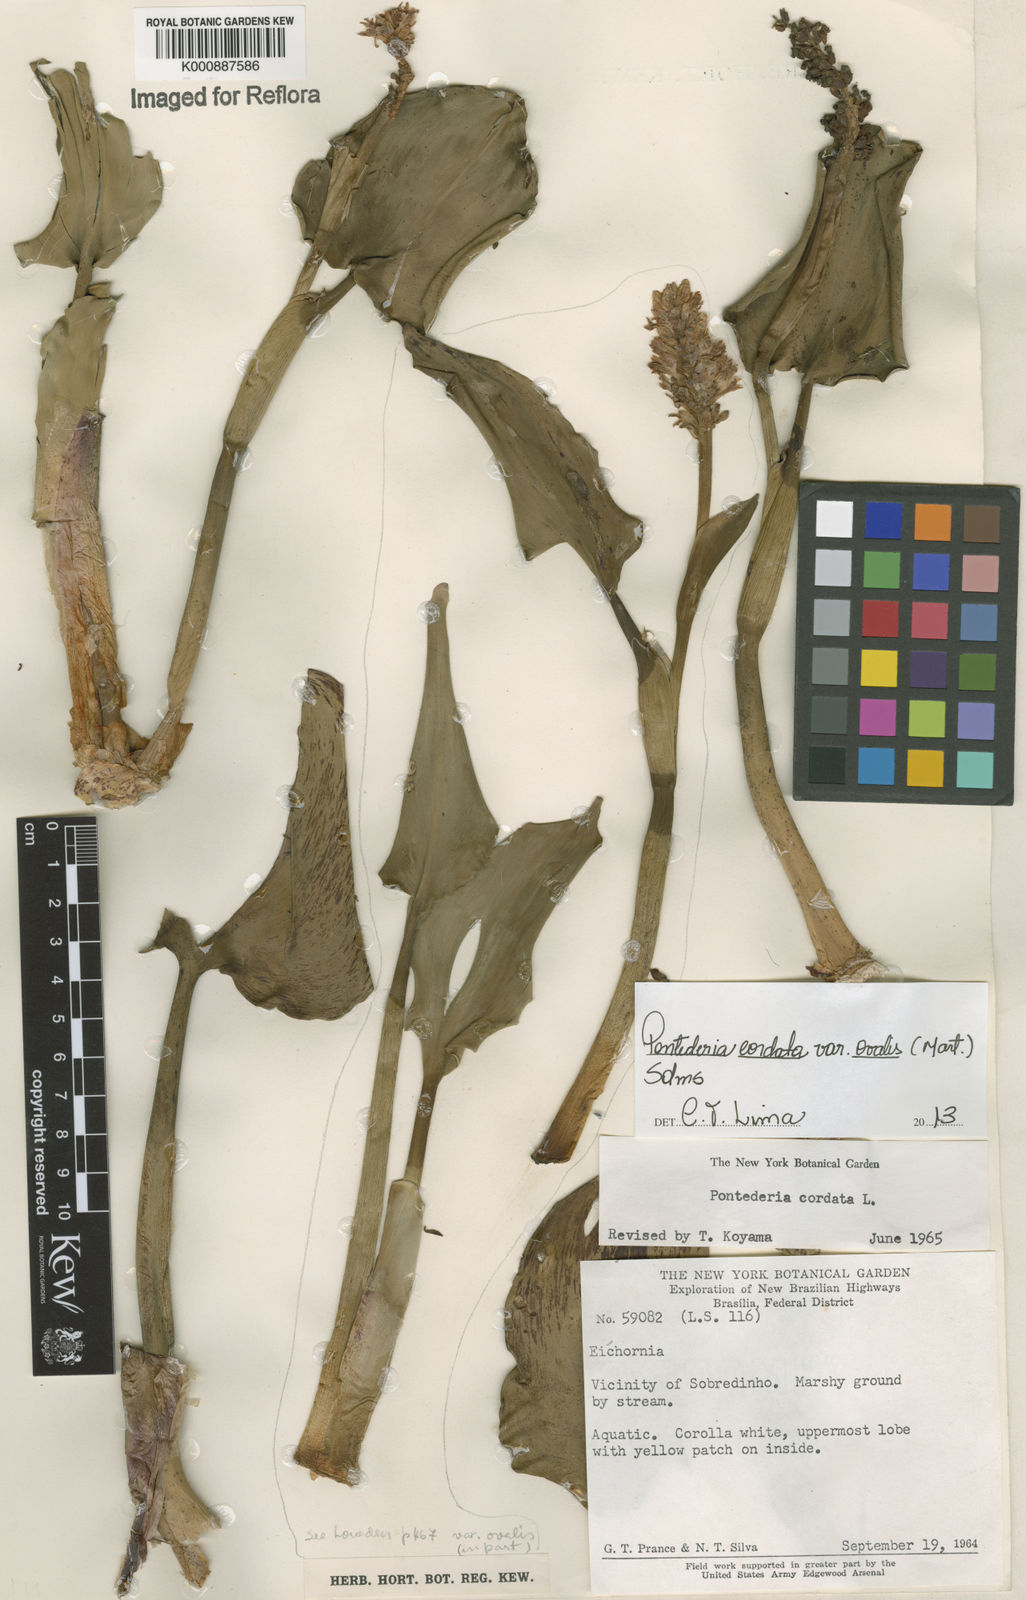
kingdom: Plantae
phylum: Tracheophyta
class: Liliopsida
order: Commelinales
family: Pontederiaceae
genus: Pontederia
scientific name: Pontederia cordata
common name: Pickerelweed
